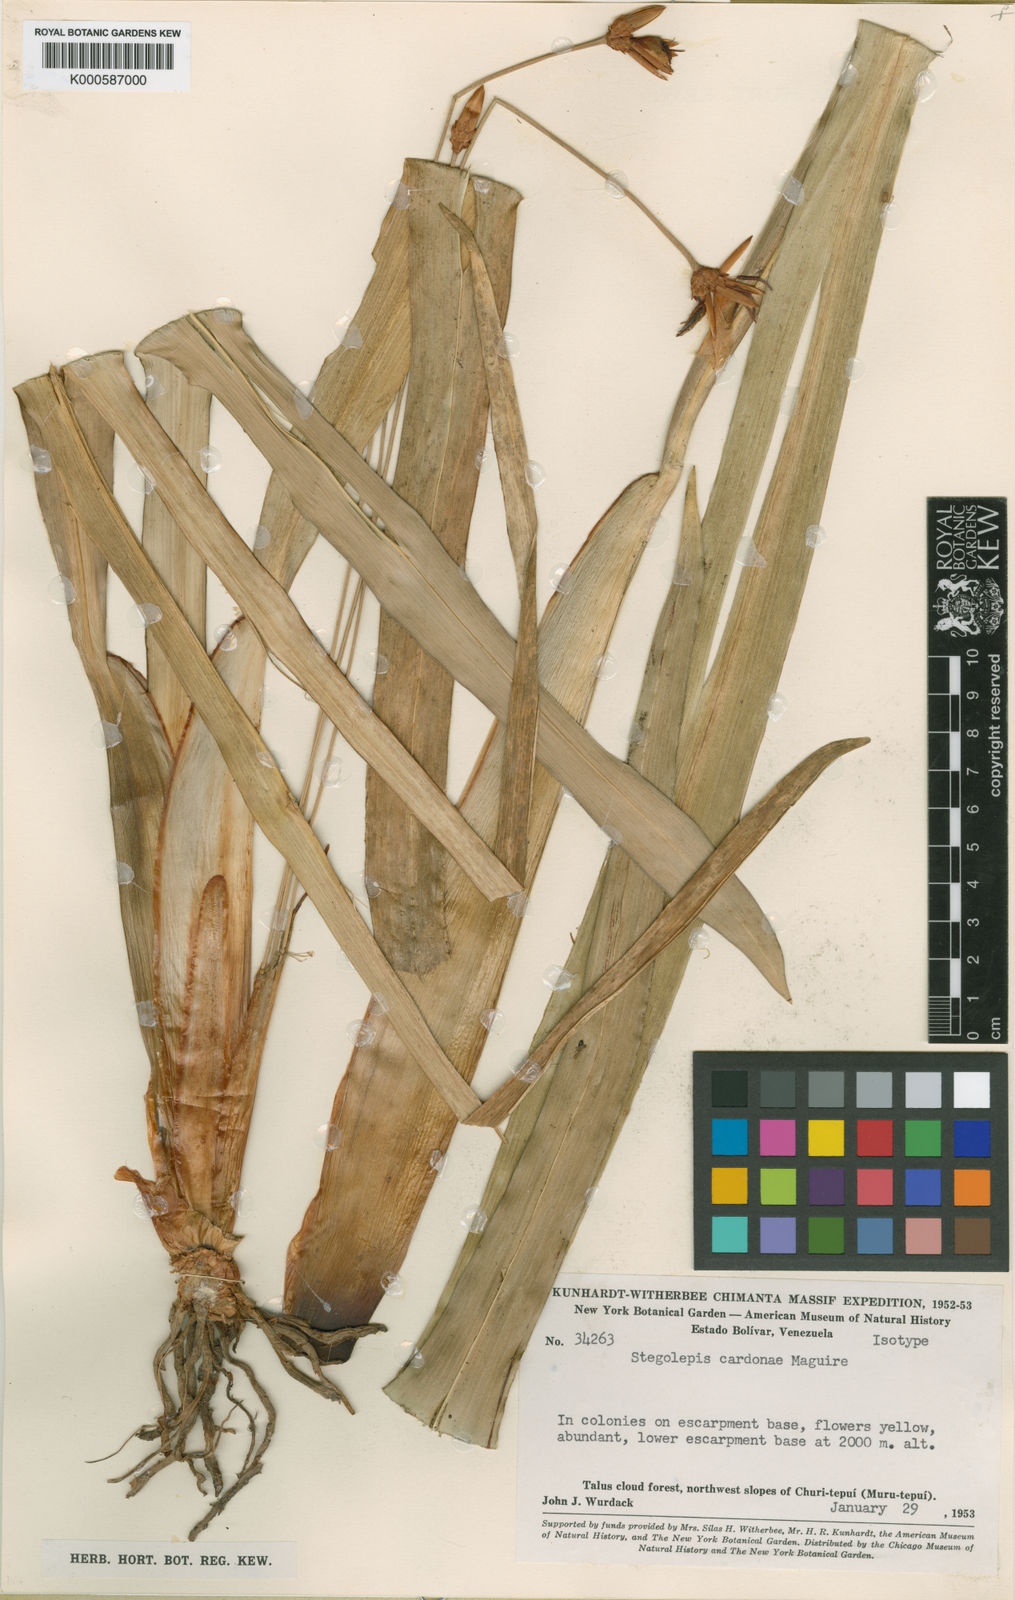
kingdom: Plantae
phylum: Tracheophyta
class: Liliopsida
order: Poales
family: Rapateaceae
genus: Stegolepis
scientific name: Stegolepis cardonae
